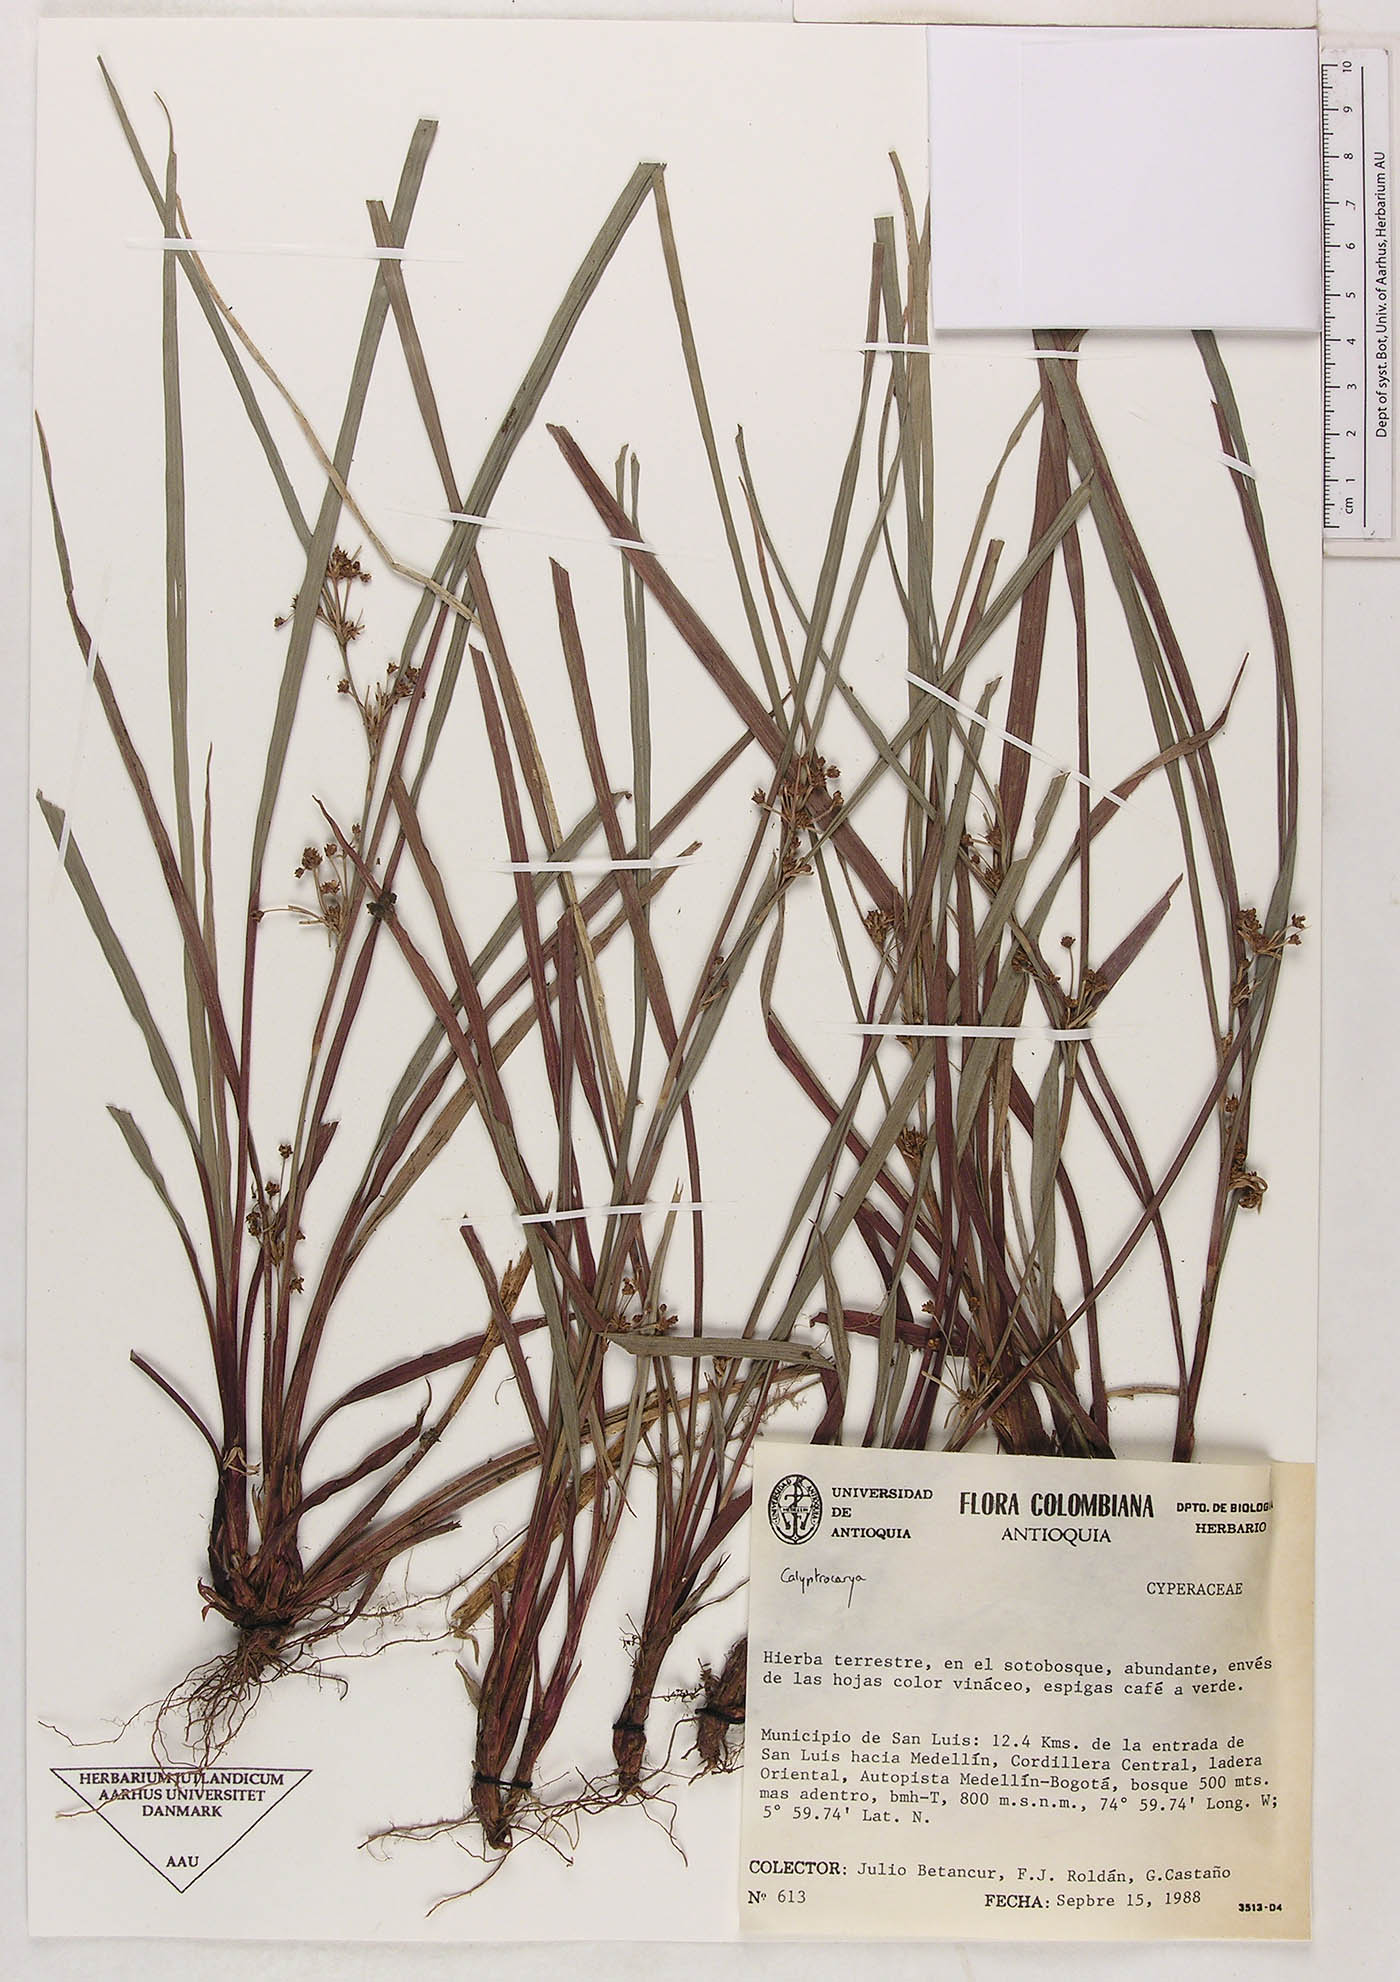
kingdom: Plantae
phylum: Tracheophyta
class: Liliopsida
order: Poales
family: Cyperaceae
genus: Calyptrocarya
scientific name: Calyptrocarya
